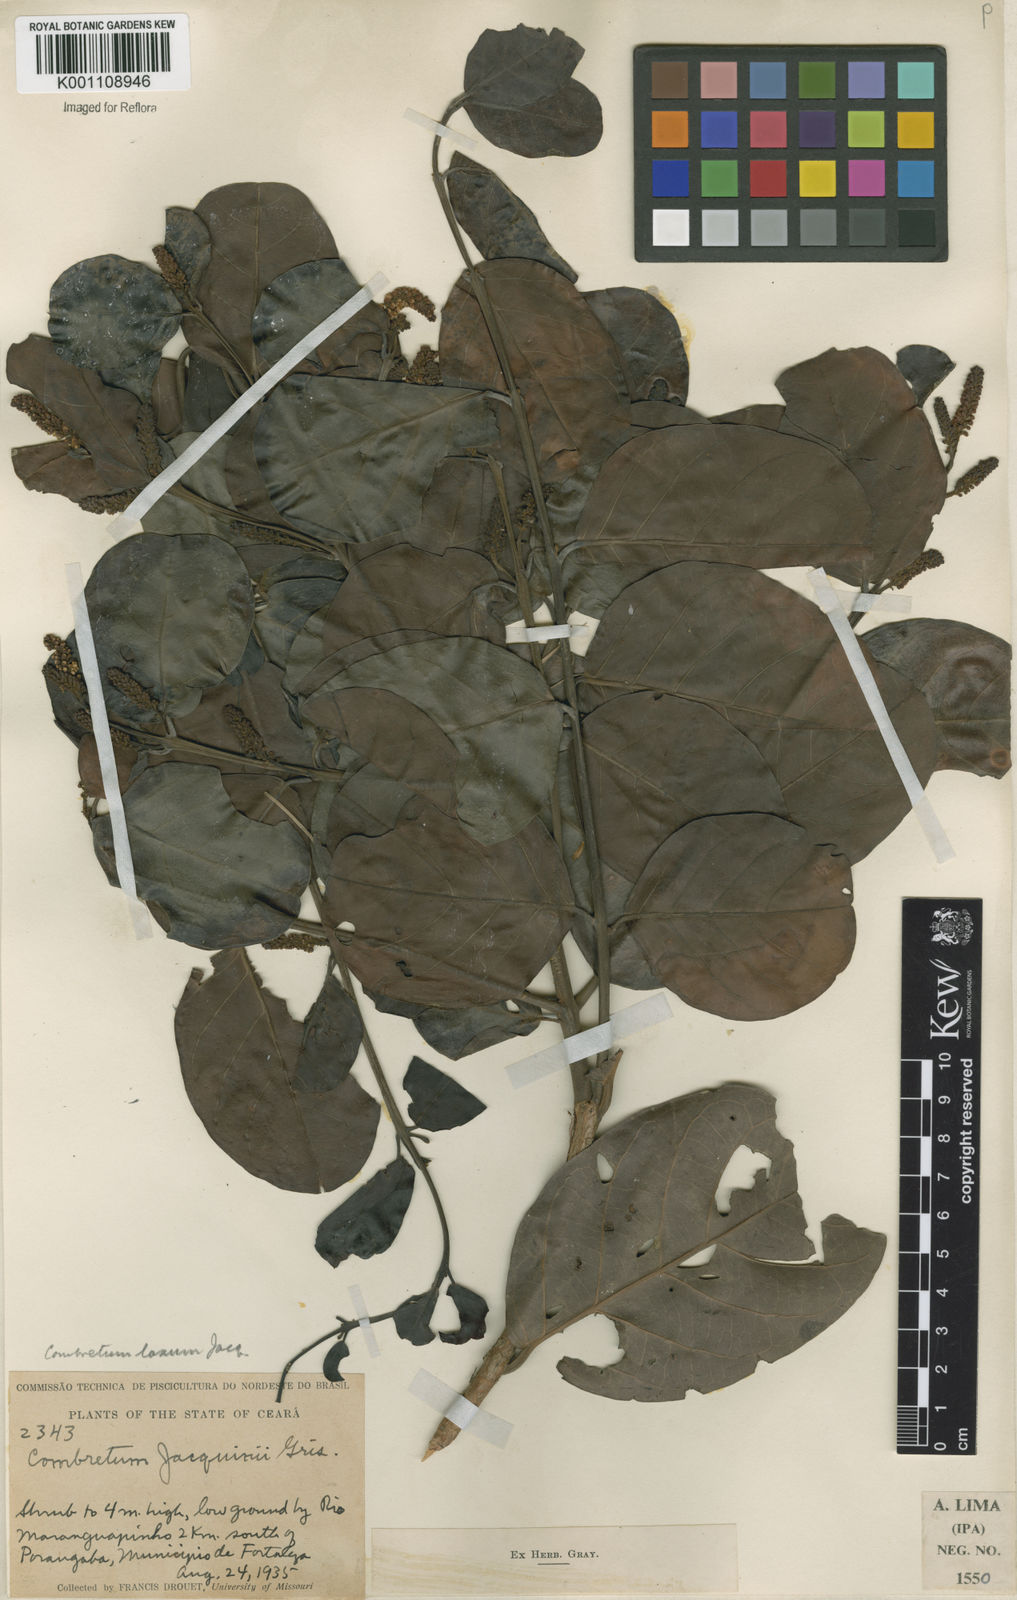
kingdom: Plantae
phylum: Tracheophyta
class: Magnoliopsida
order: Myrtales
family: Combretaceae
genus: Combretum
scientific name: Combretum laxum
